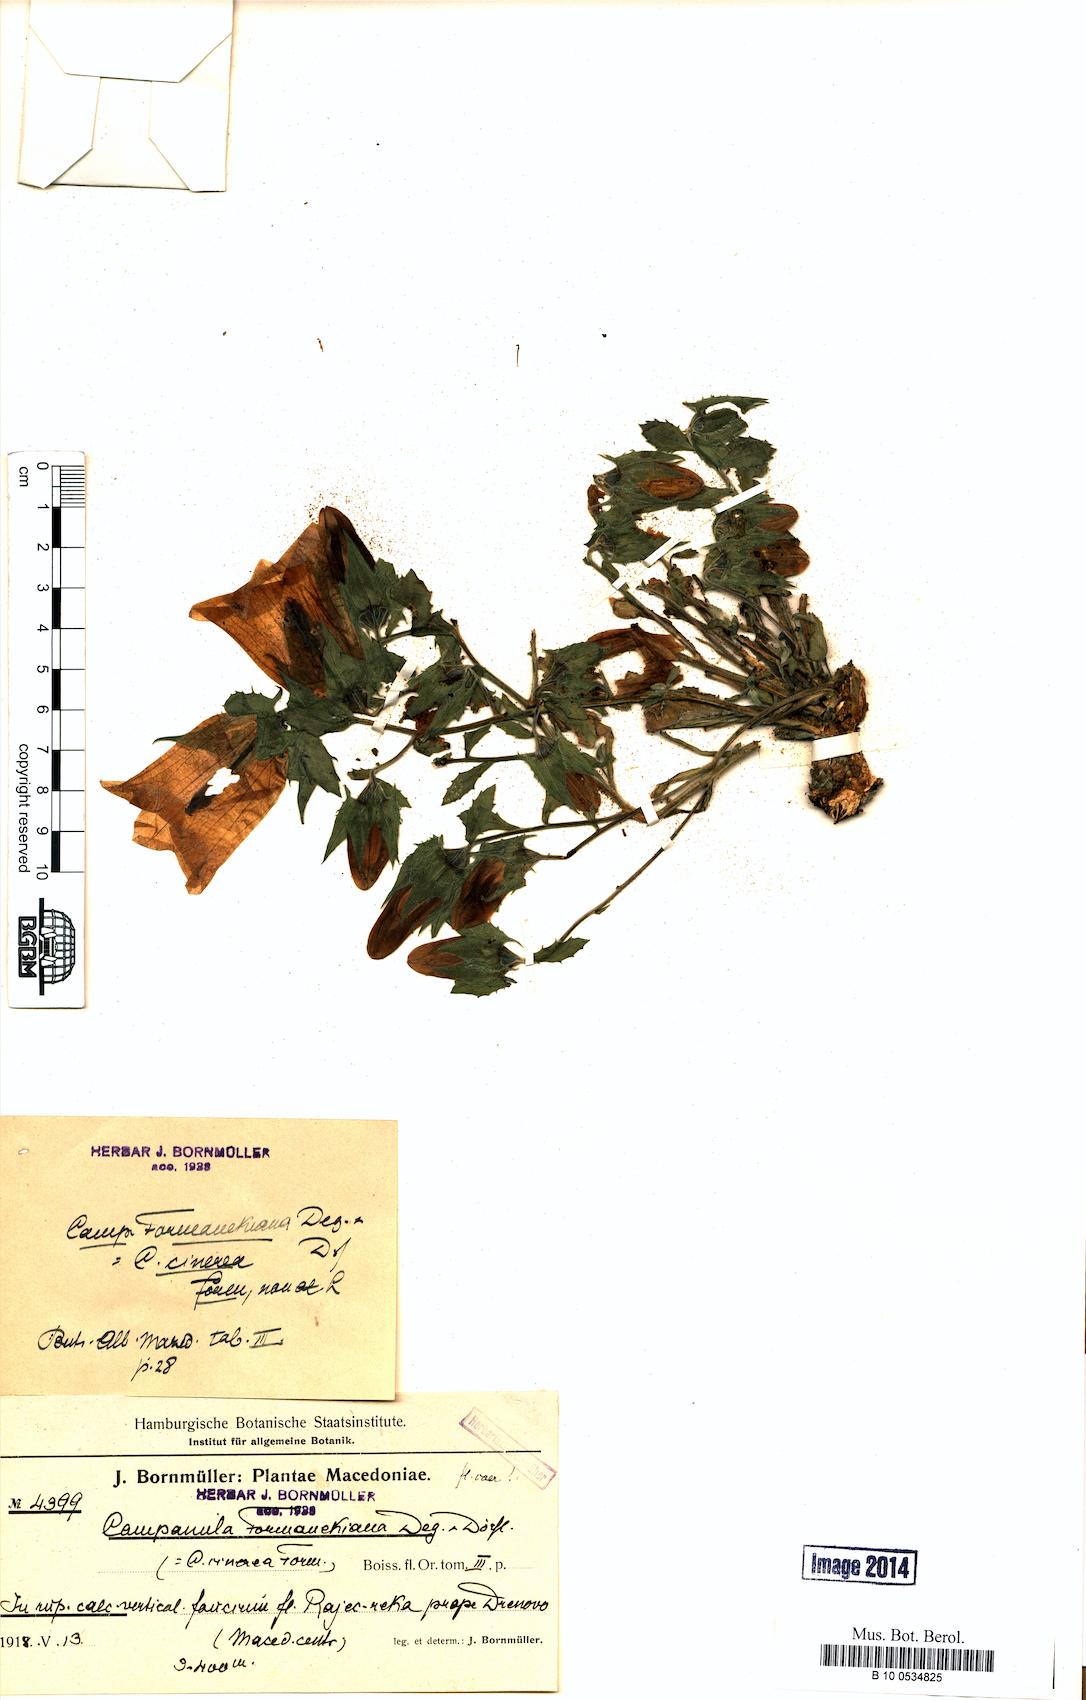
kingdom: Plantae
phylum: Tracheophyta
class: Magnoliopsida
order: Asterales
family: Campanulaceae
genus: Campanula
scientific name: Campanula formanekiana
